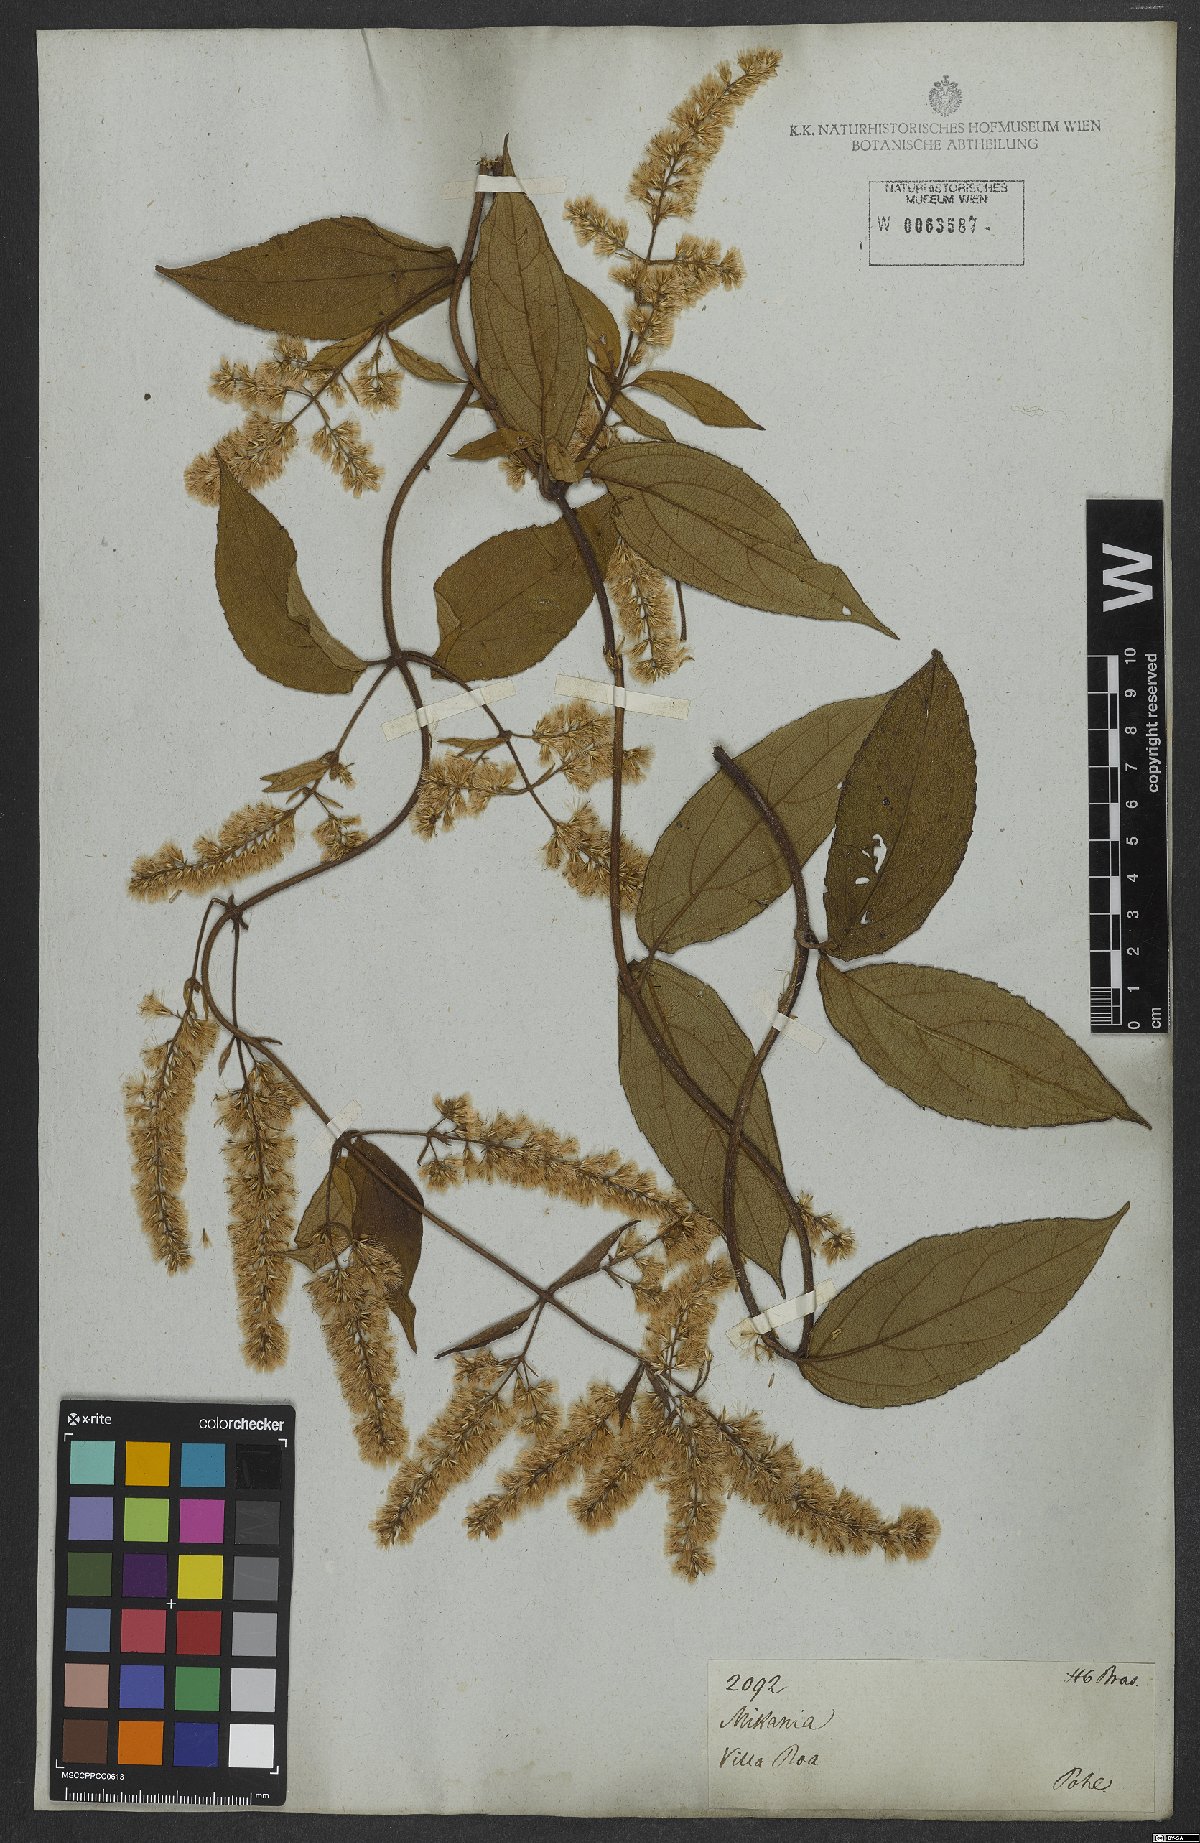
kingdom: Plantae
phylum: Tracheophyta
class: Magnoliopsida
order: Asterales
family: Asteraceae
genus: Mikania
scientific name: Mikania
